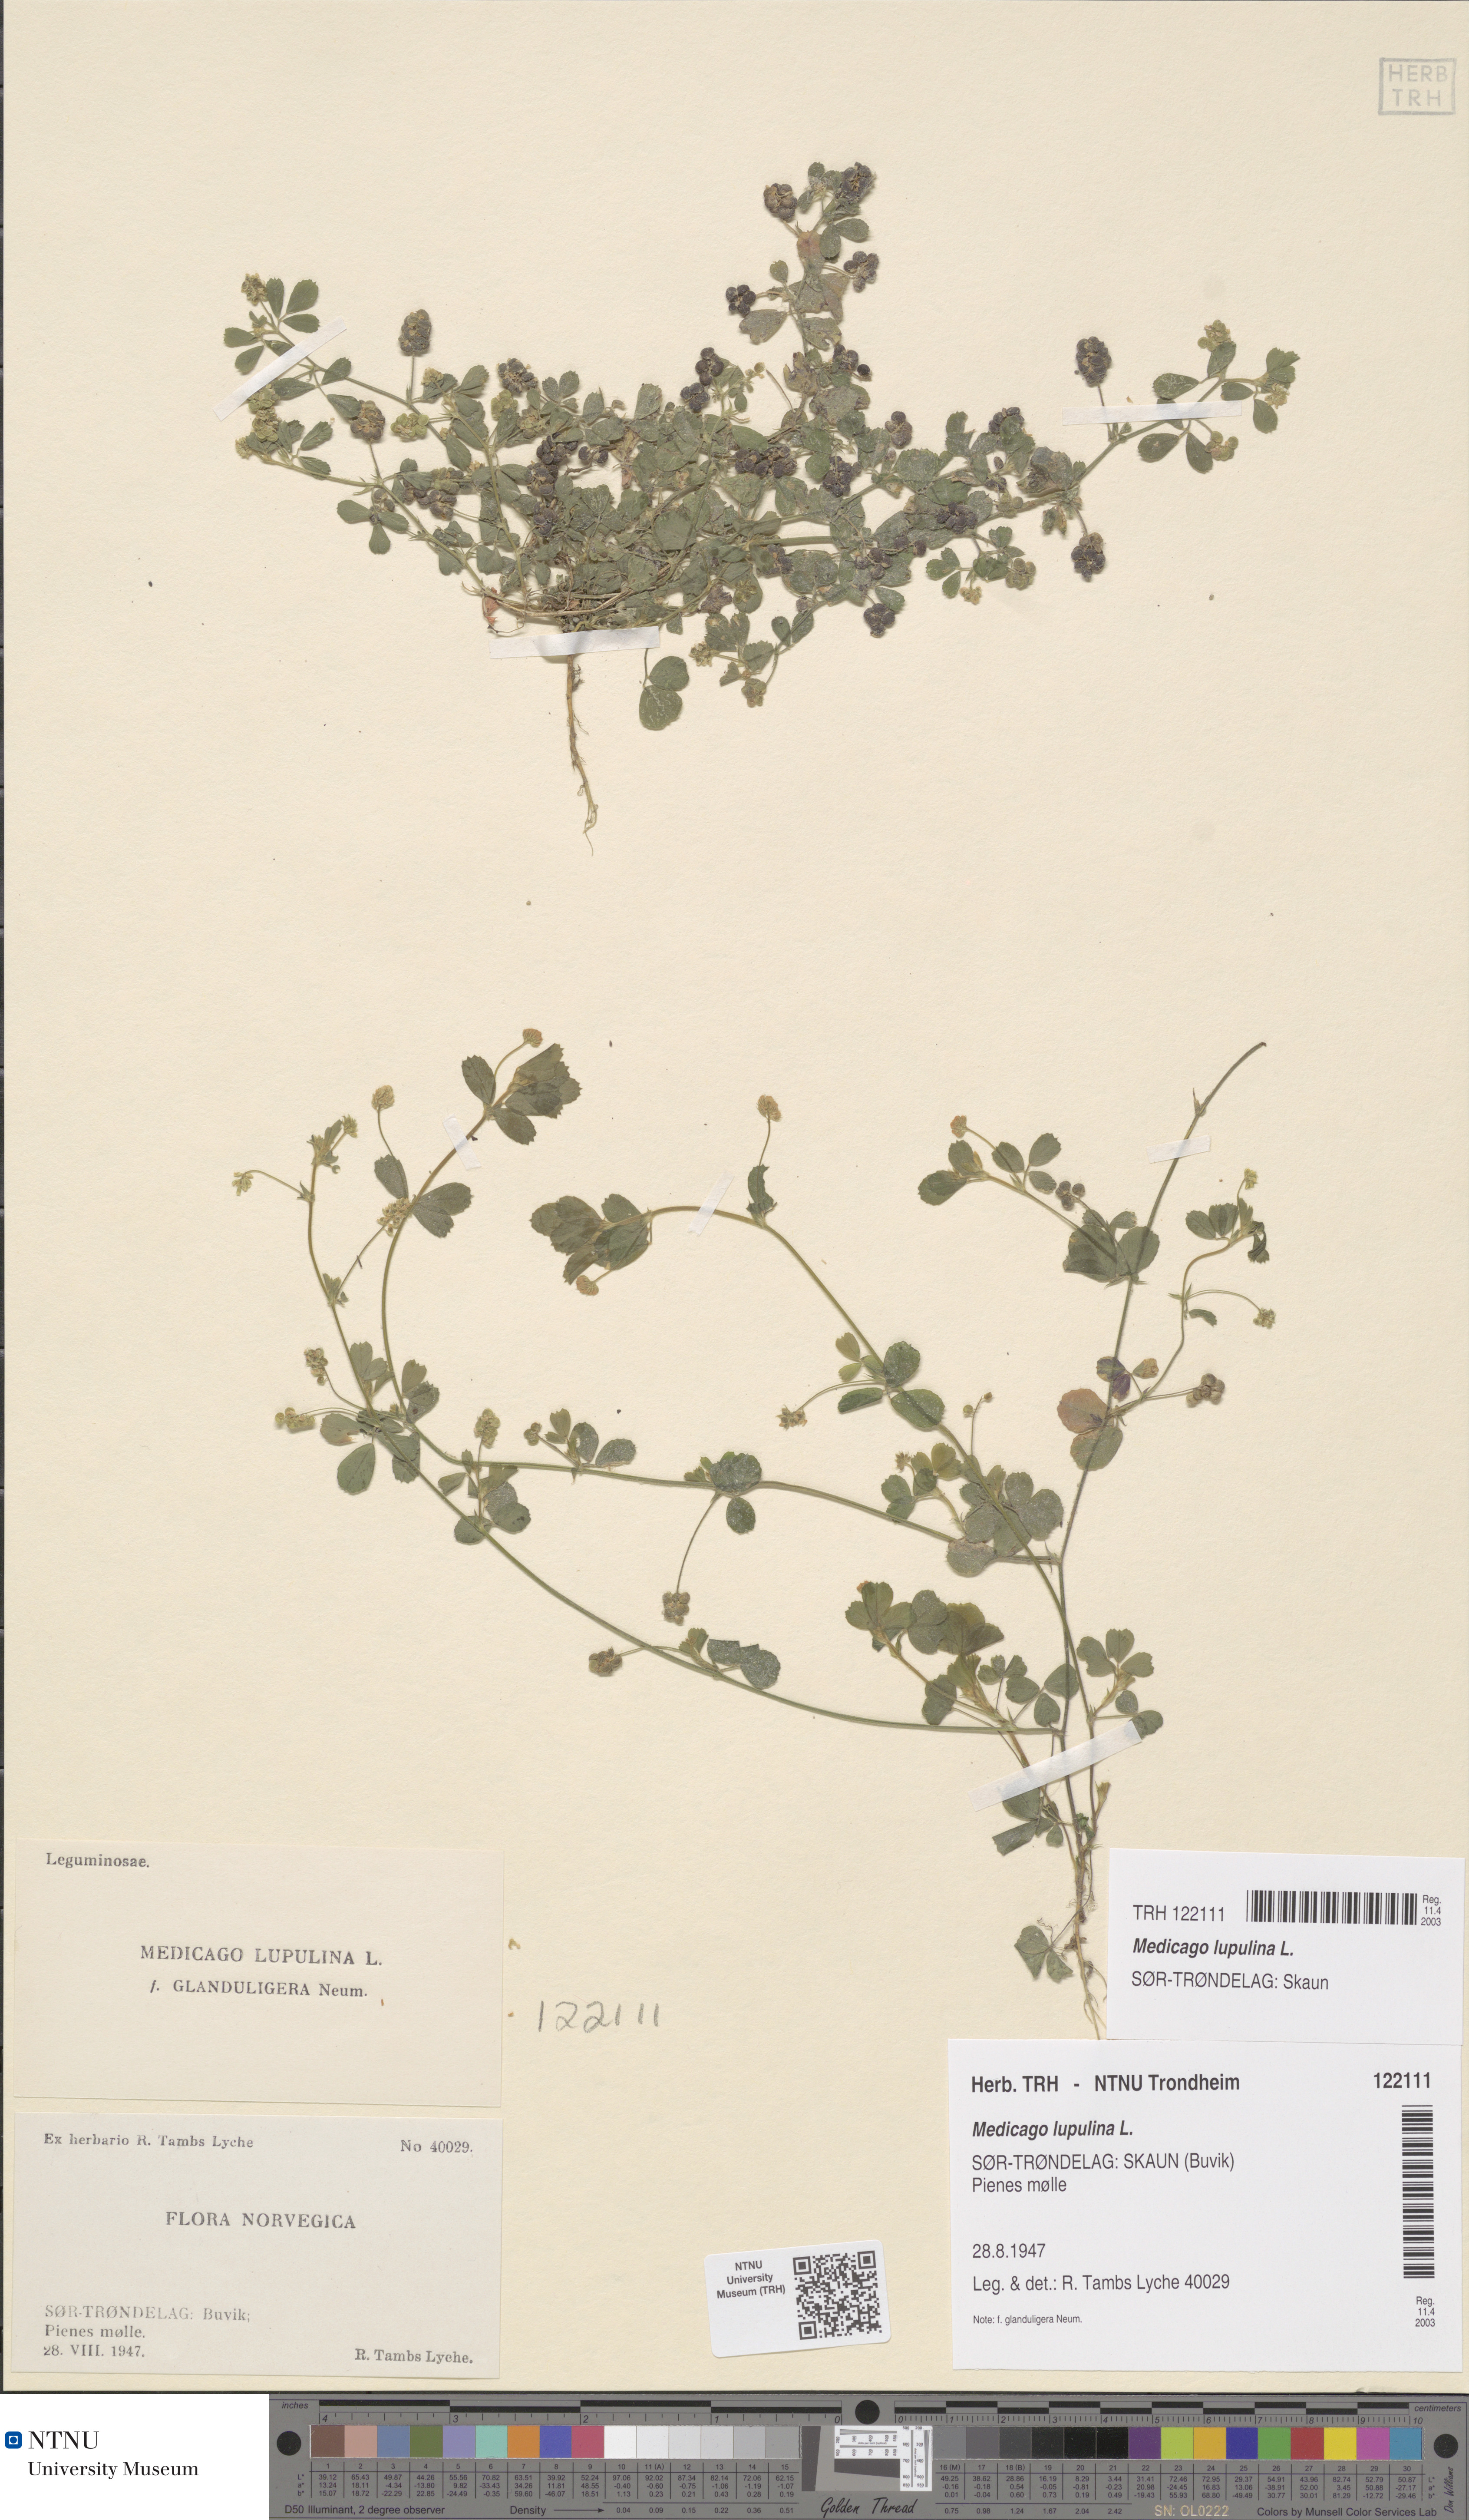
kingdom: Plantae
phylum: Tracheophyta
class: Magnoliopsida
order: Fabales
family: Fabaceae
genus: Medicago
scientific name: Medicago lupulina
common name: Black medick
